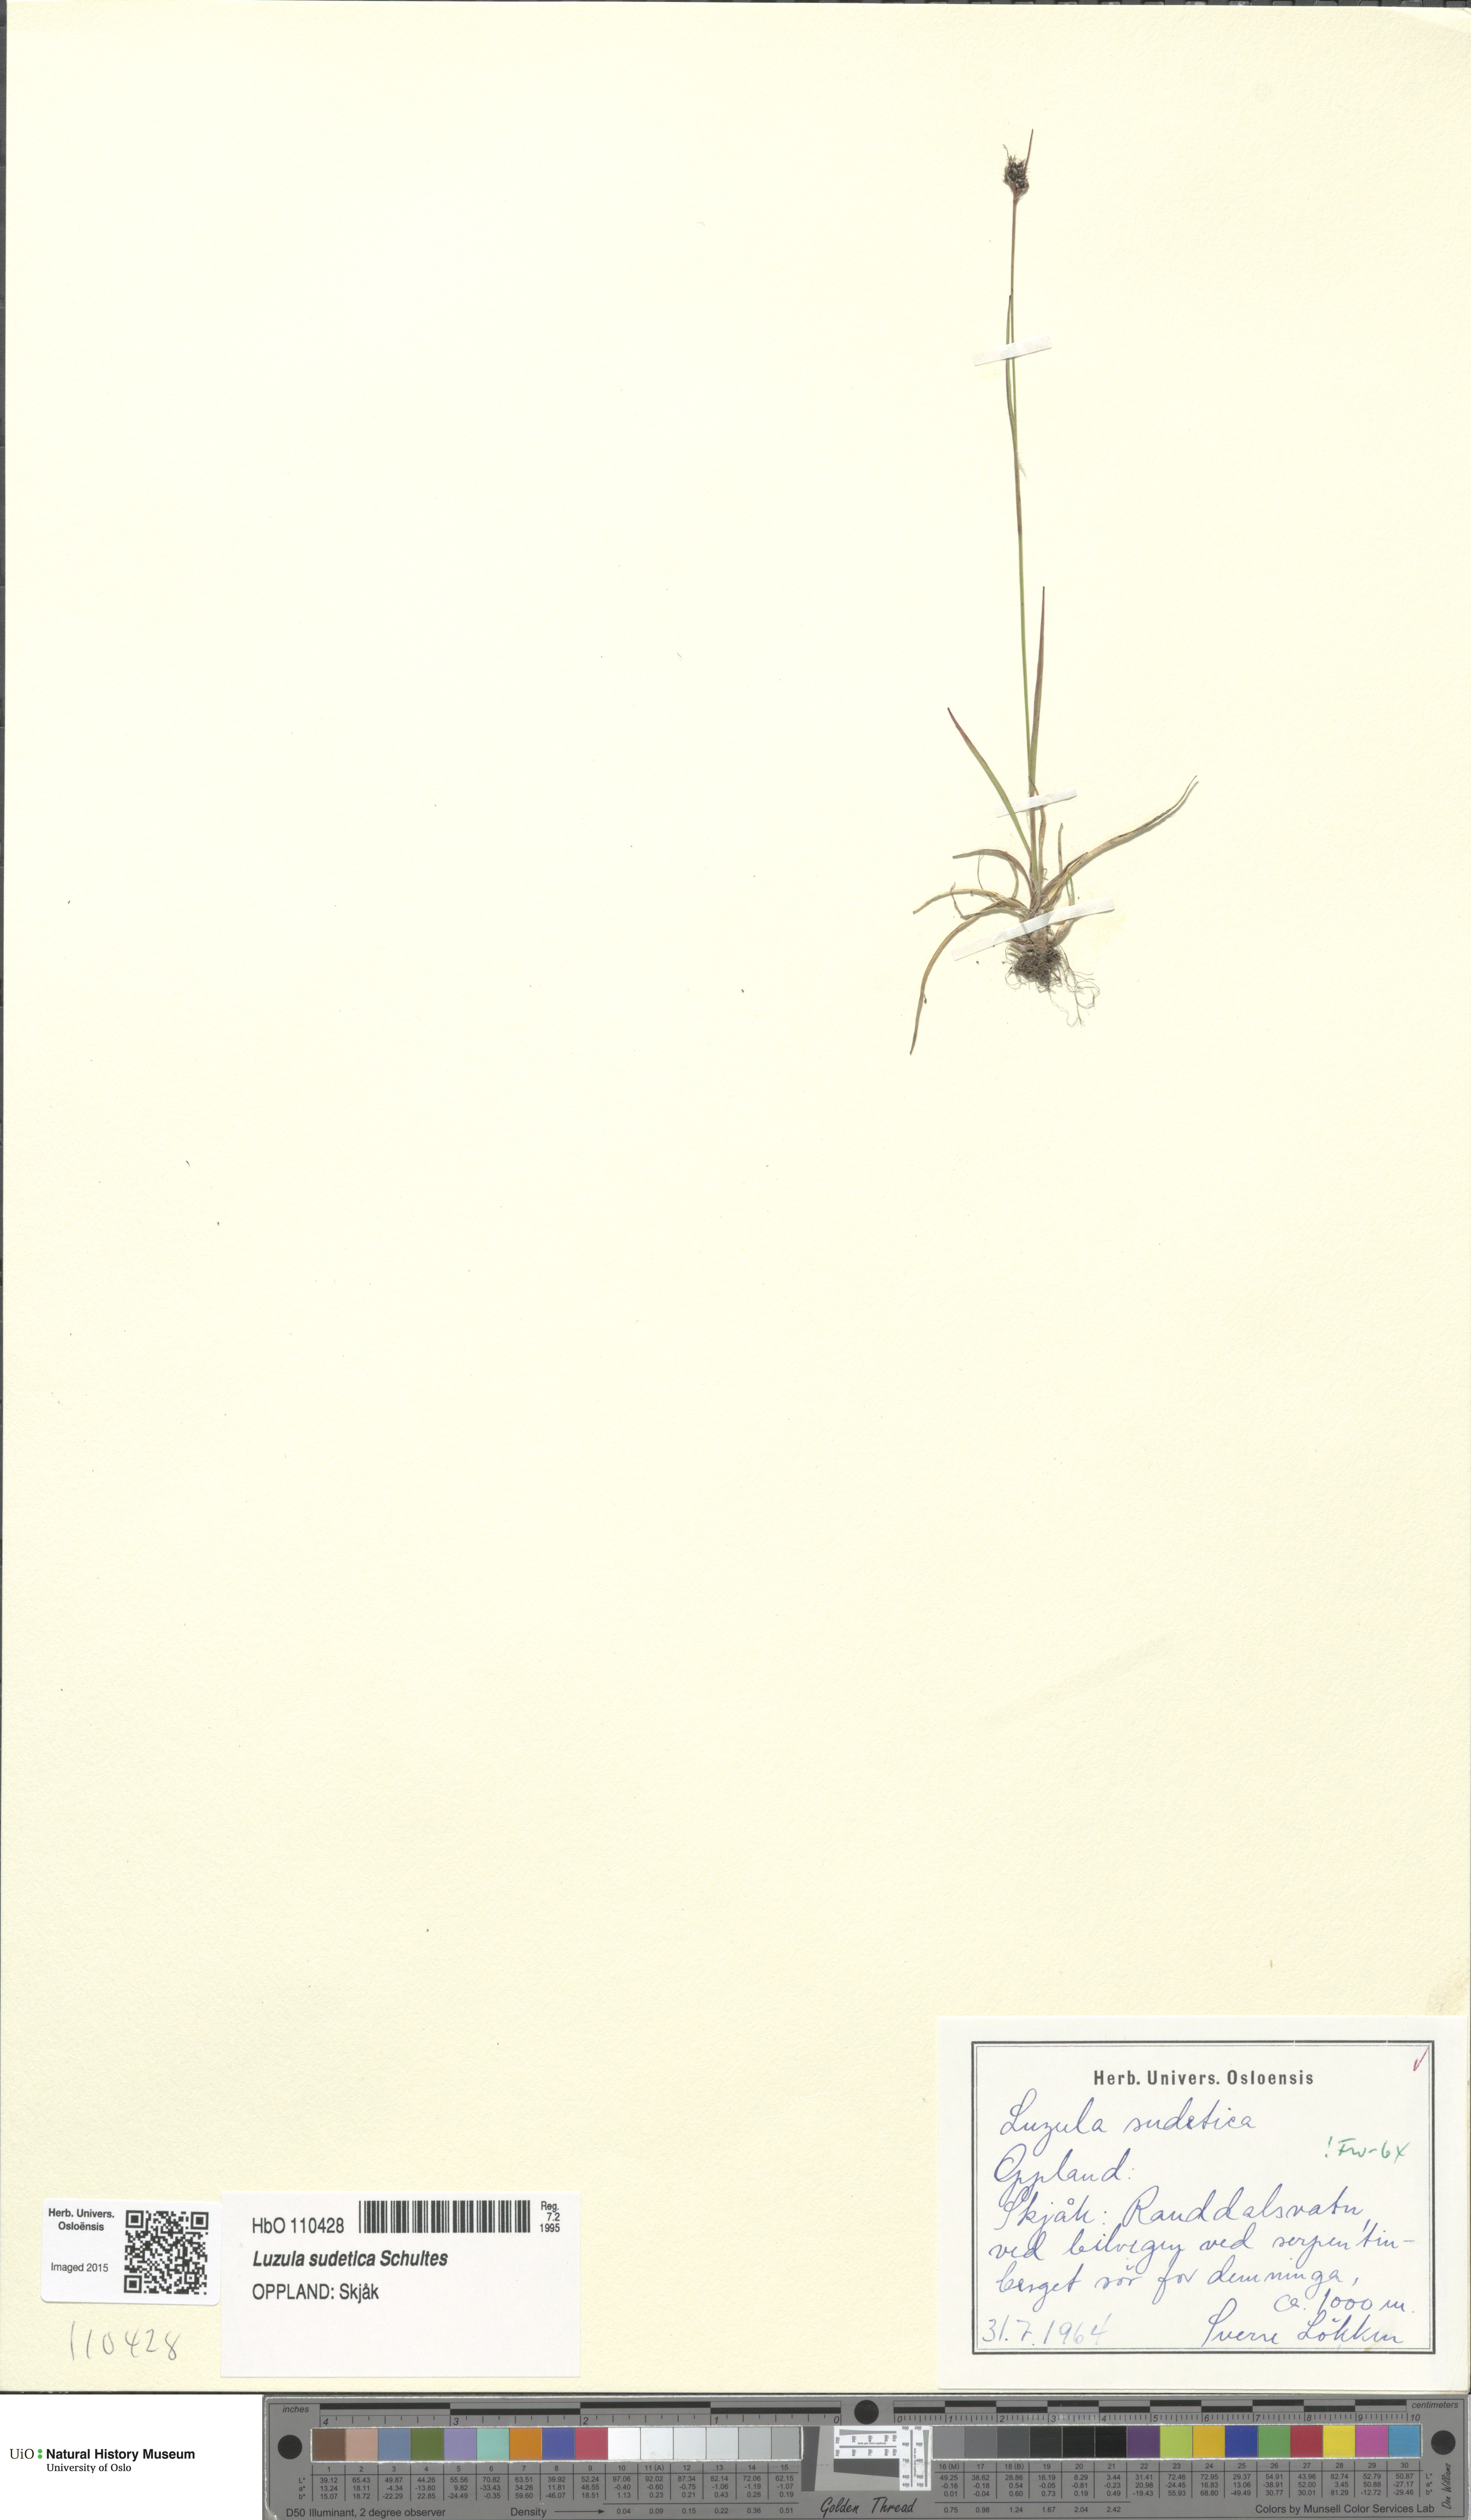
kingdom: Plantae
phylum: Tracheophyta
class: Liliopsida
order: Poales
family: Juncaceae
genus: Luzula
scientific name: Luzula sudetica
